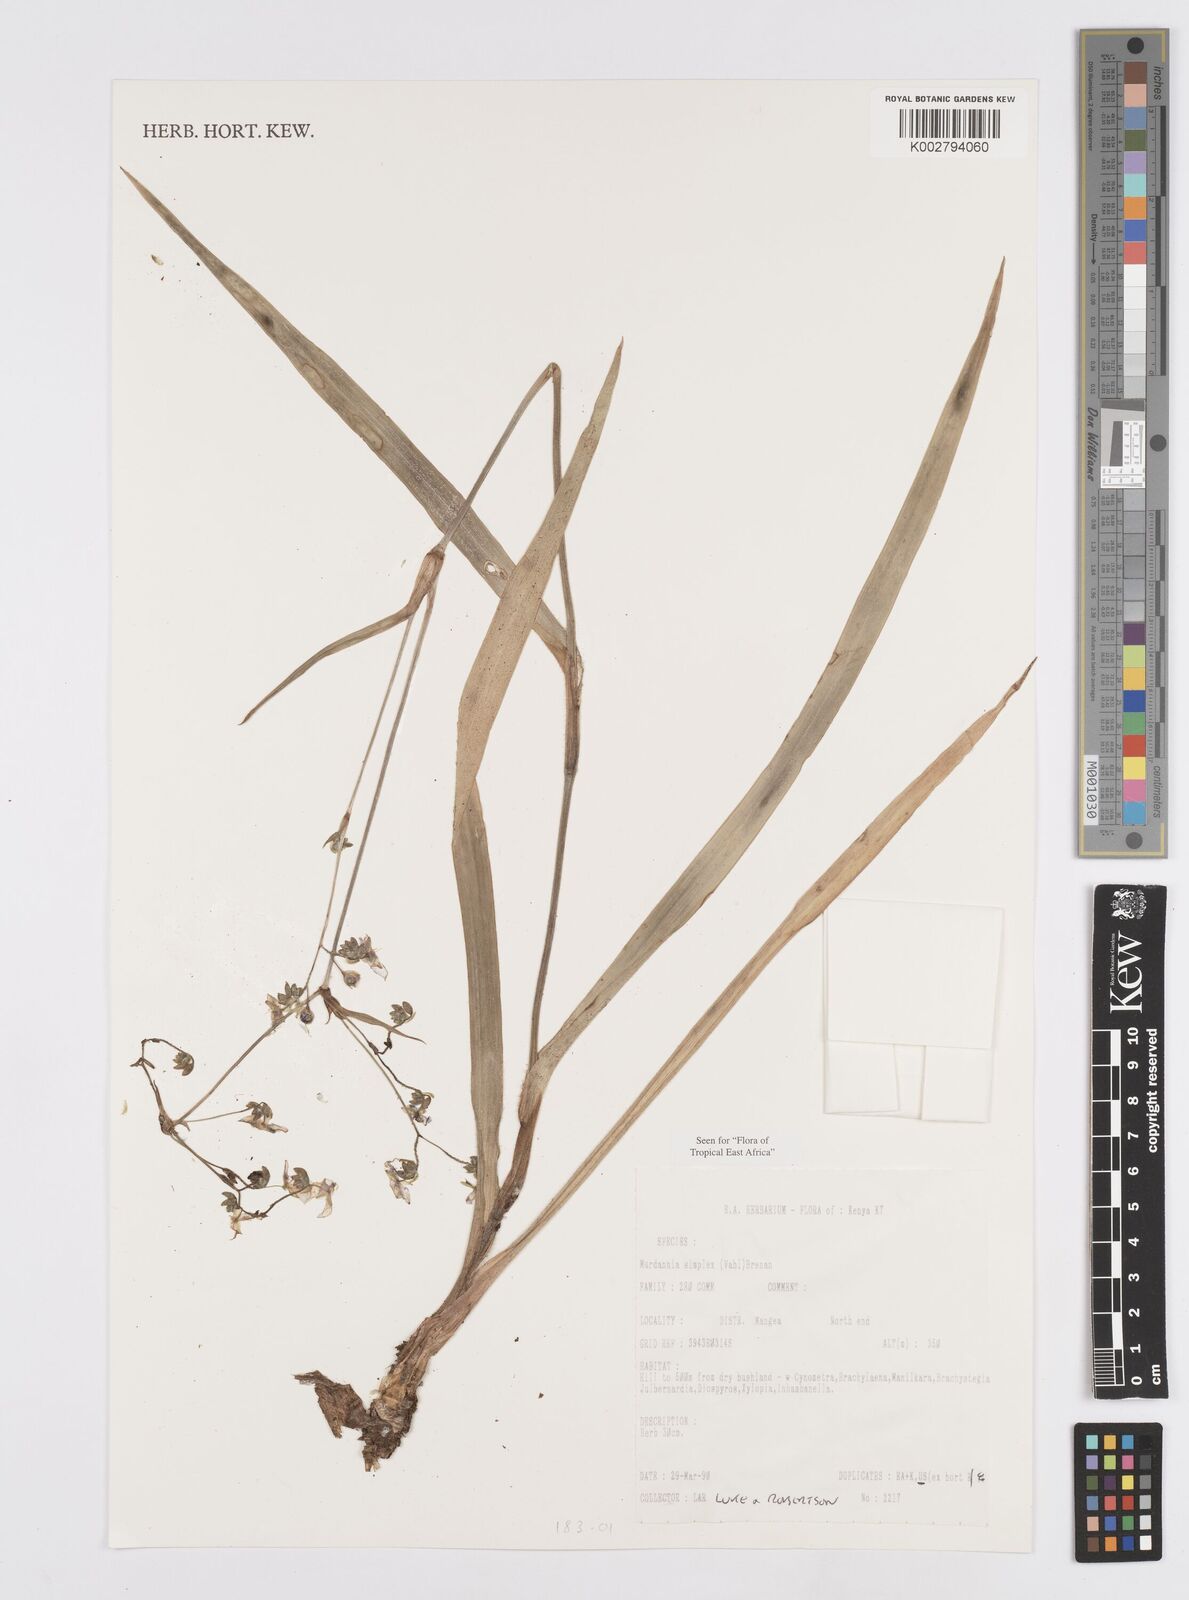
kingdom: Plantae
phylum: Tracheophyta
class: Liliopsida
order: Commelinales
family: Commelinaceae
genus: Murdannia
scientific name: Murdannia simplex
